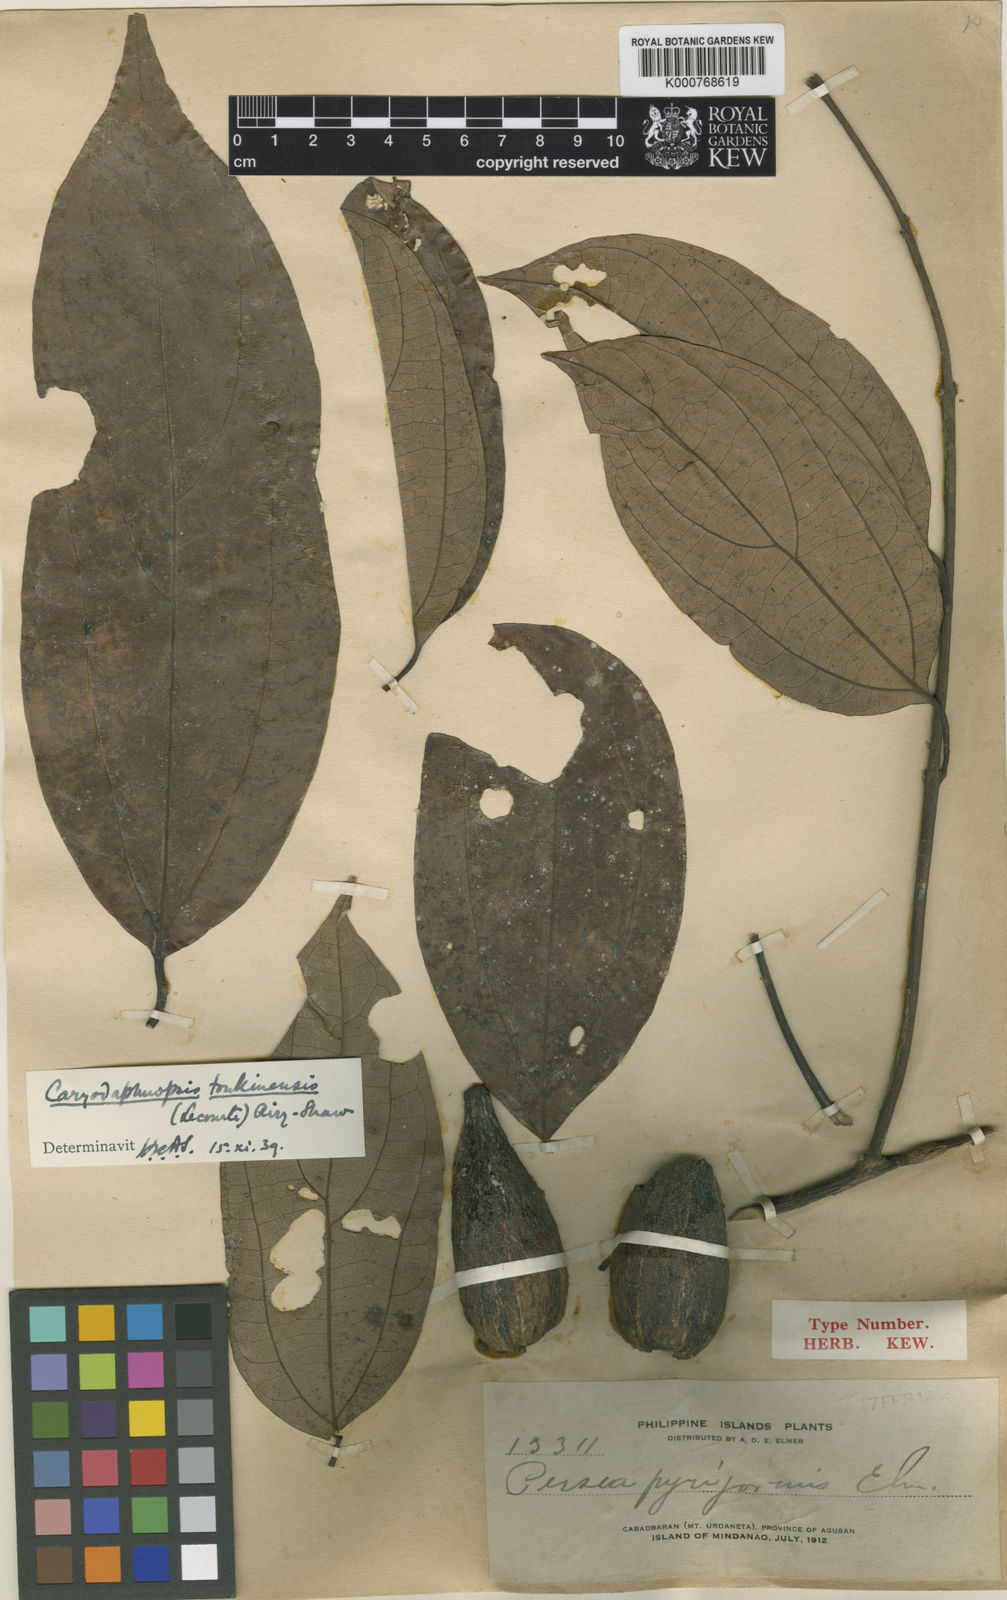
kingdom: Plantae
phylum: Tracheophyta
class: Magnoliopsida
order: Laurales
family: Lauraceae
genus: Caryodaphnopsis
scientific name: Caryodaphnopsis tonkinensis
